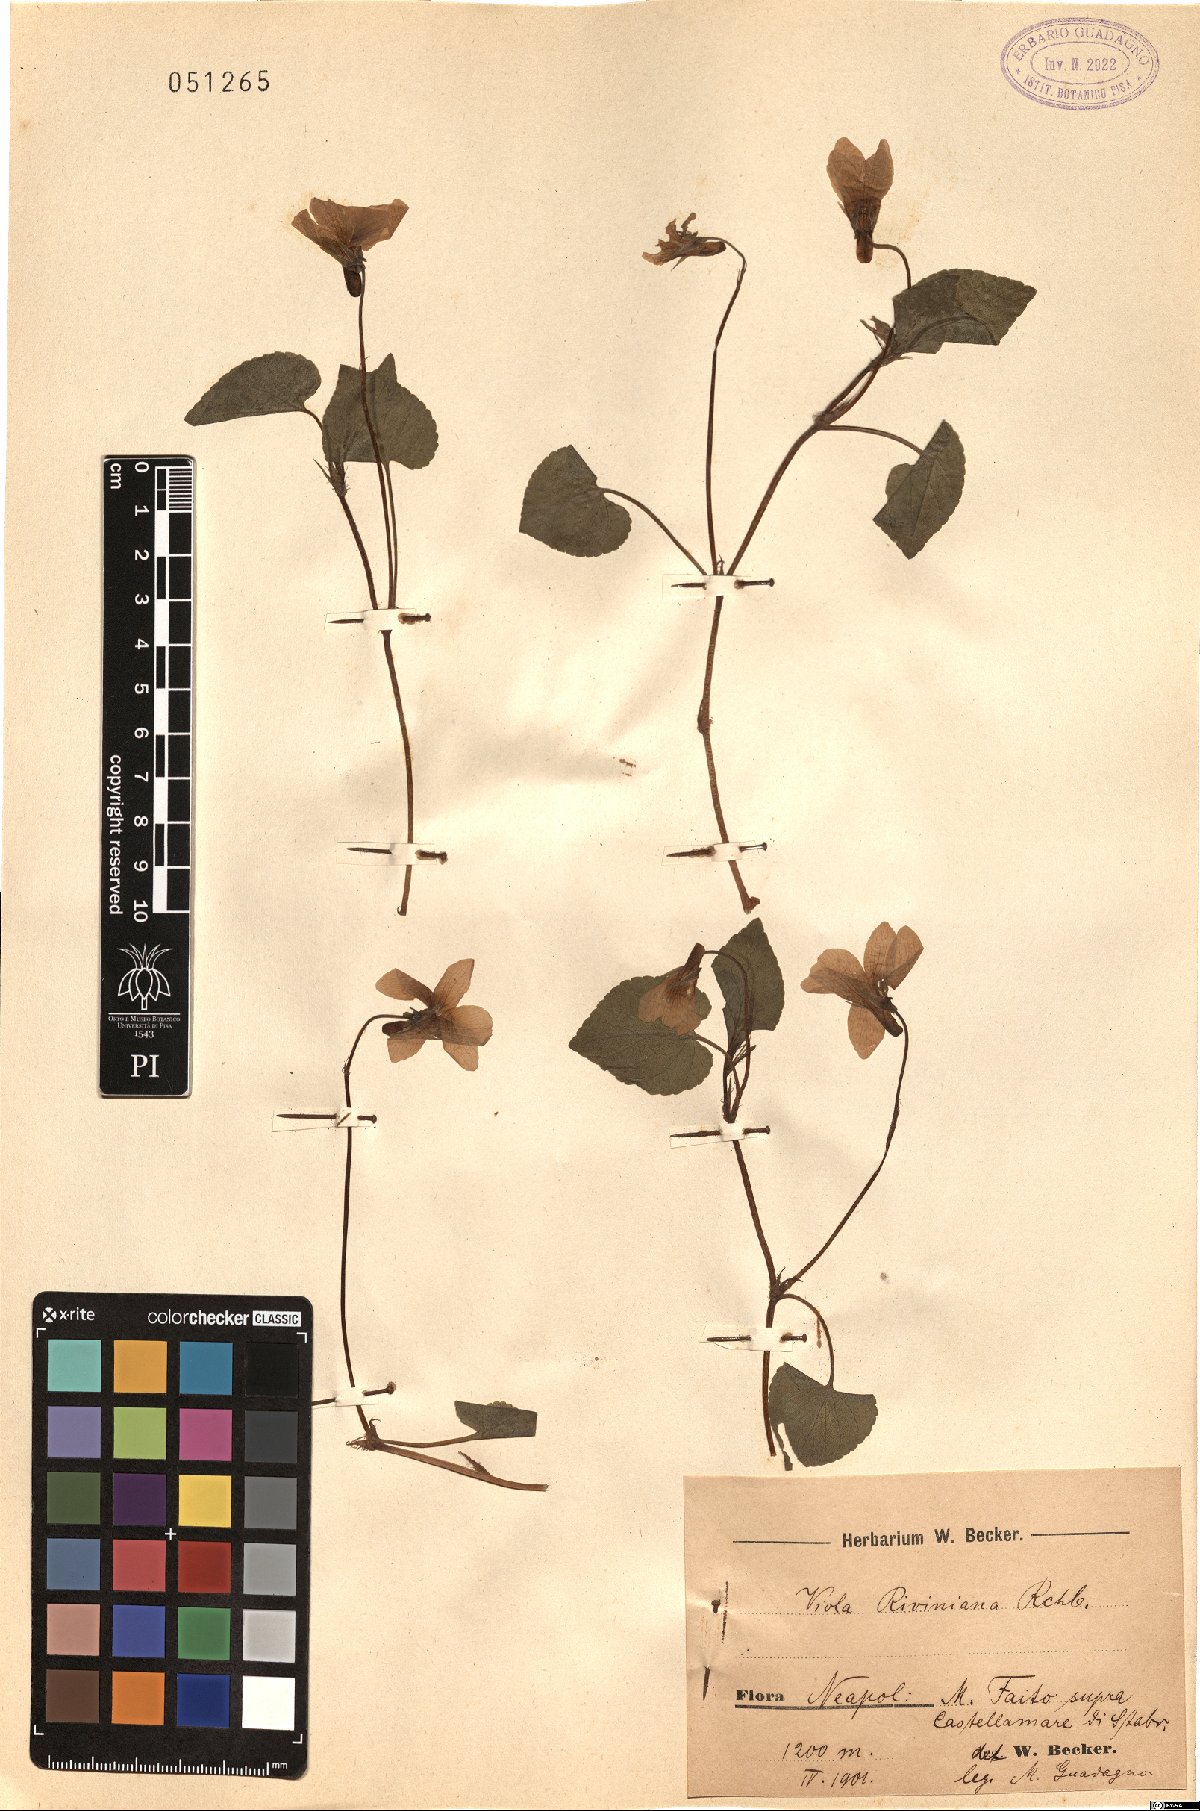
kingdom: Plantae
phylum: Tracheophyta
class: Magnoliopsida
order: Malpighiales
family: Violaceae
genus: Viola
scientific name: Viola riviniana
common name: Common dog-violet
